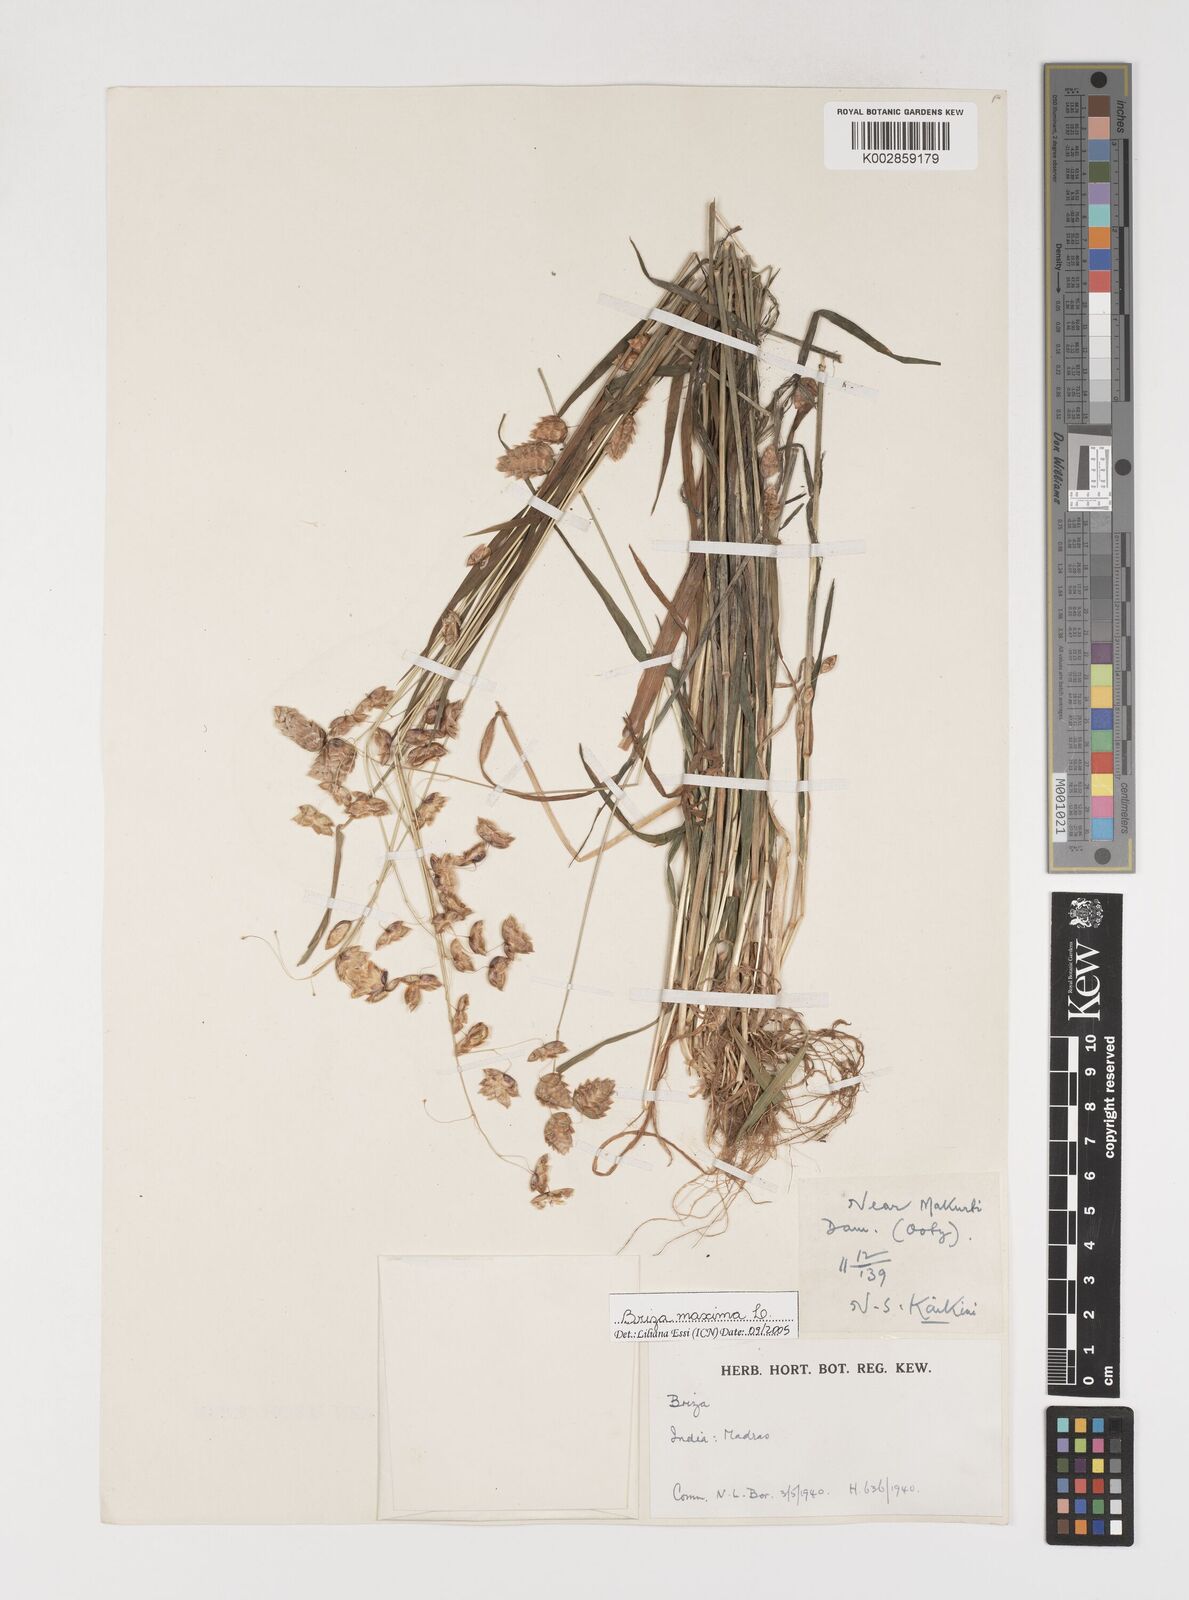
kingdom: Plantae
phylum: Tracheophyta
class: Liliopsida
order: Poales
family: Poaceae
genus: Briza
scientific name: Briza maxima
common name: Big quakinggrass
